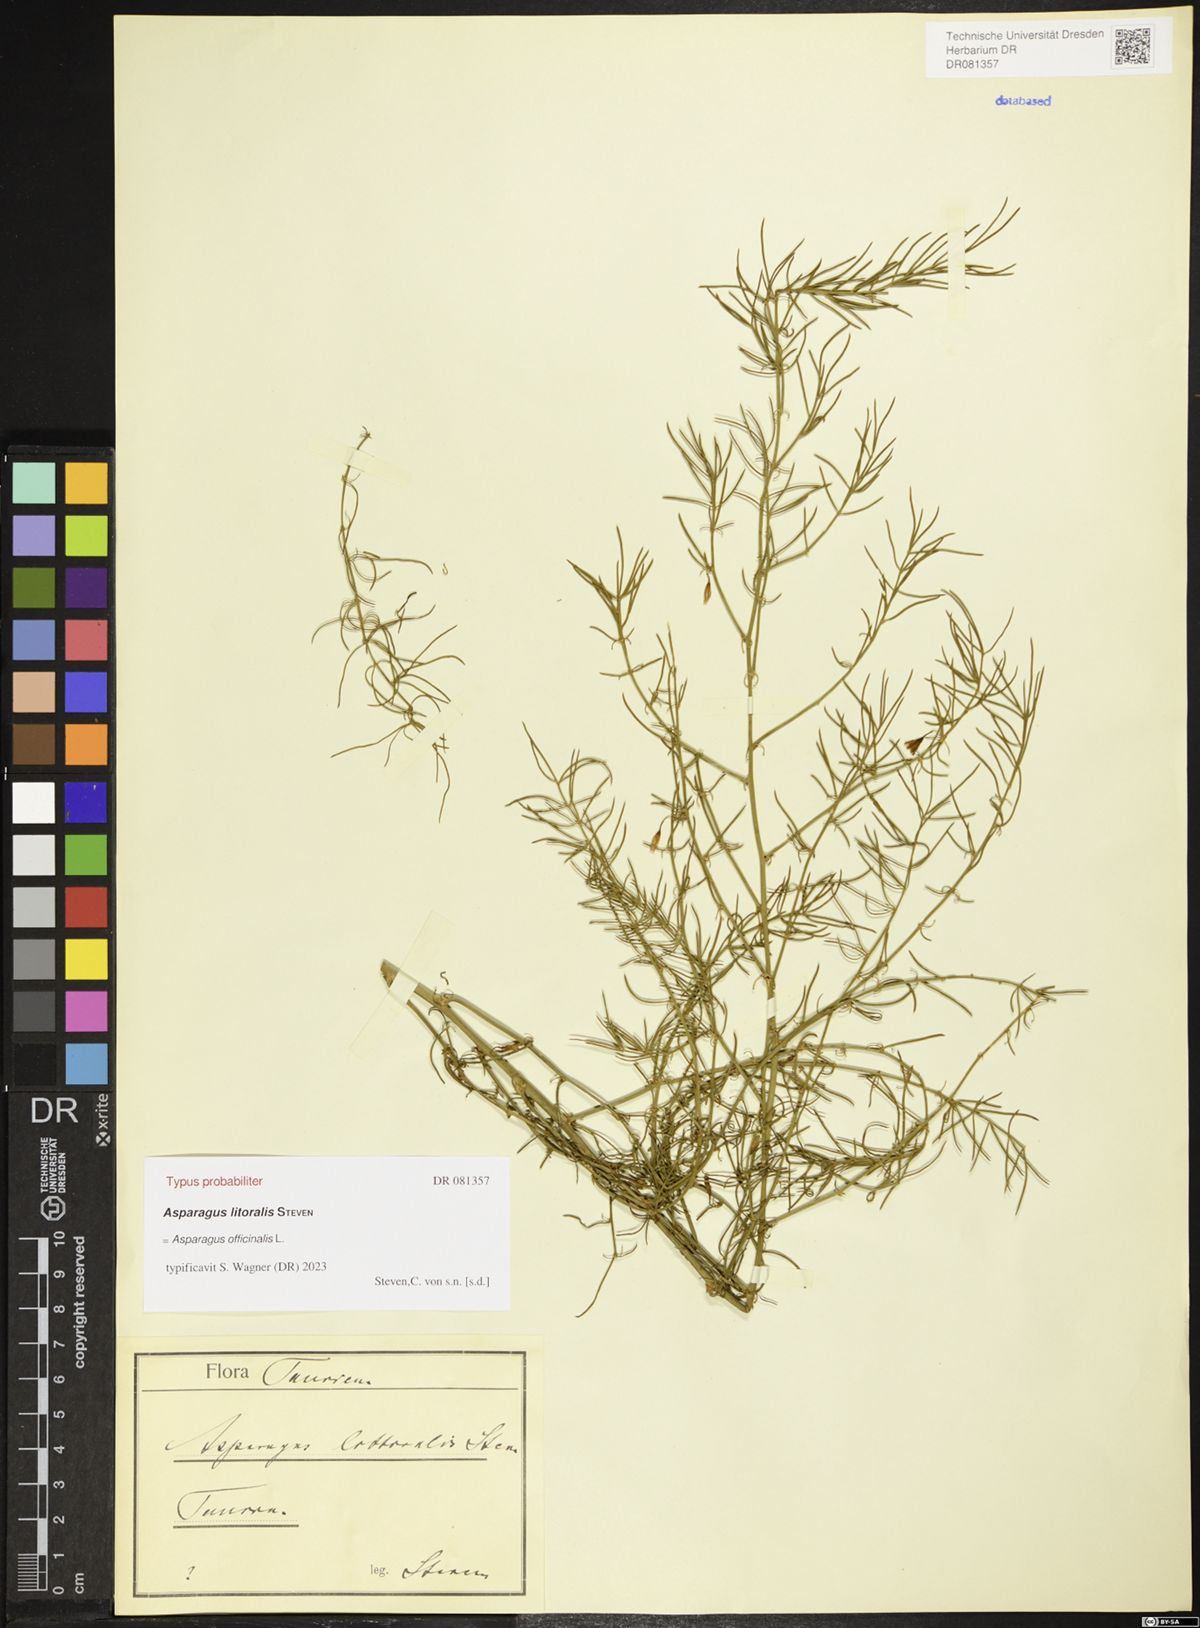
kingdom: Plantae
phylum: Tracheophyta
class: Liliopsida
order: Asparagales
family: Asparagaceae
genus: Asparagus
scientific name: Asparagus officinalis
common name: Garden asparagus
